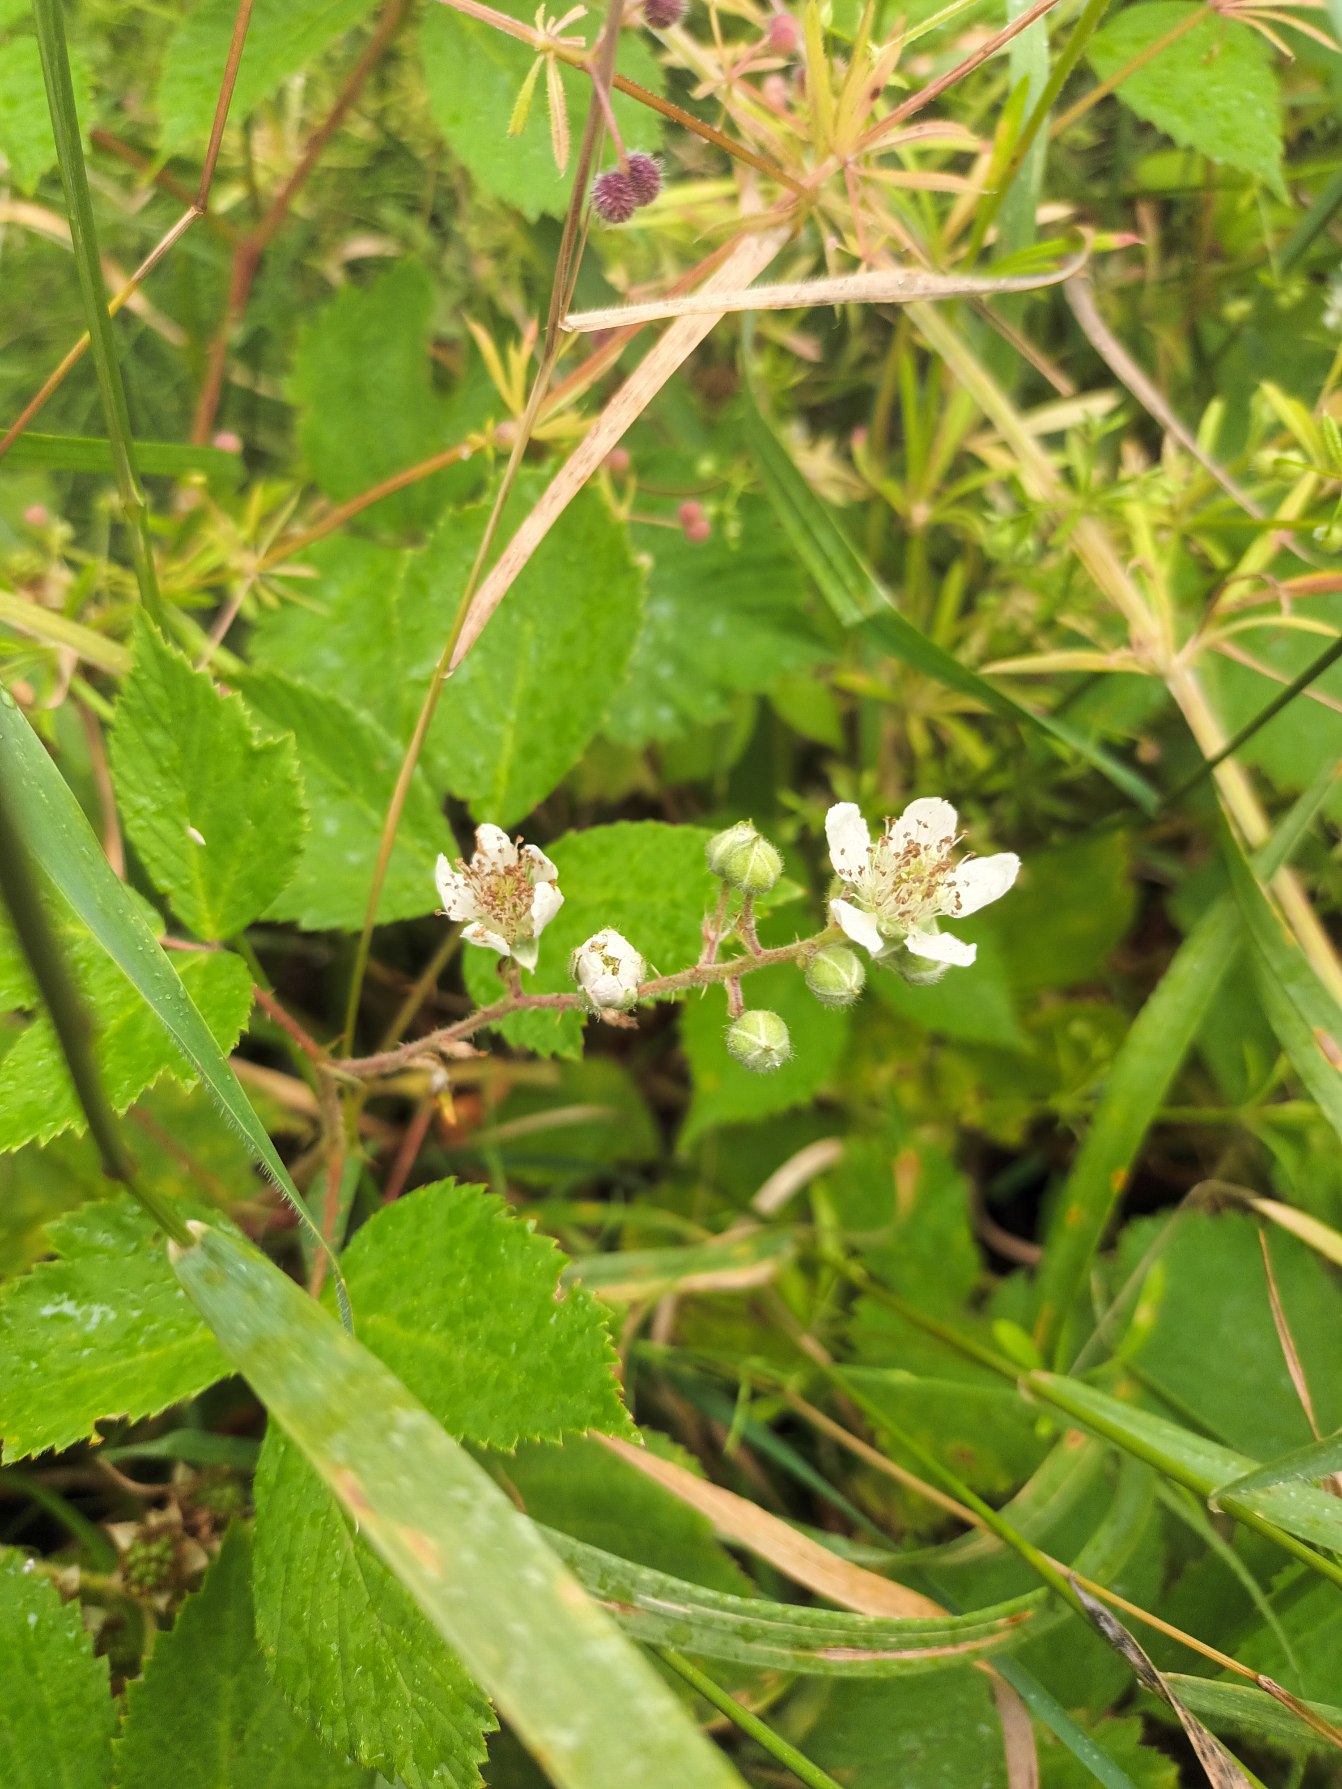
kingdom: Plantae
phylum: Tracheophyta
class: Magnoliopsida
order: Rosales
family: Rosaceae
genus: Rubus
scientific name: Rubus silvaticus
